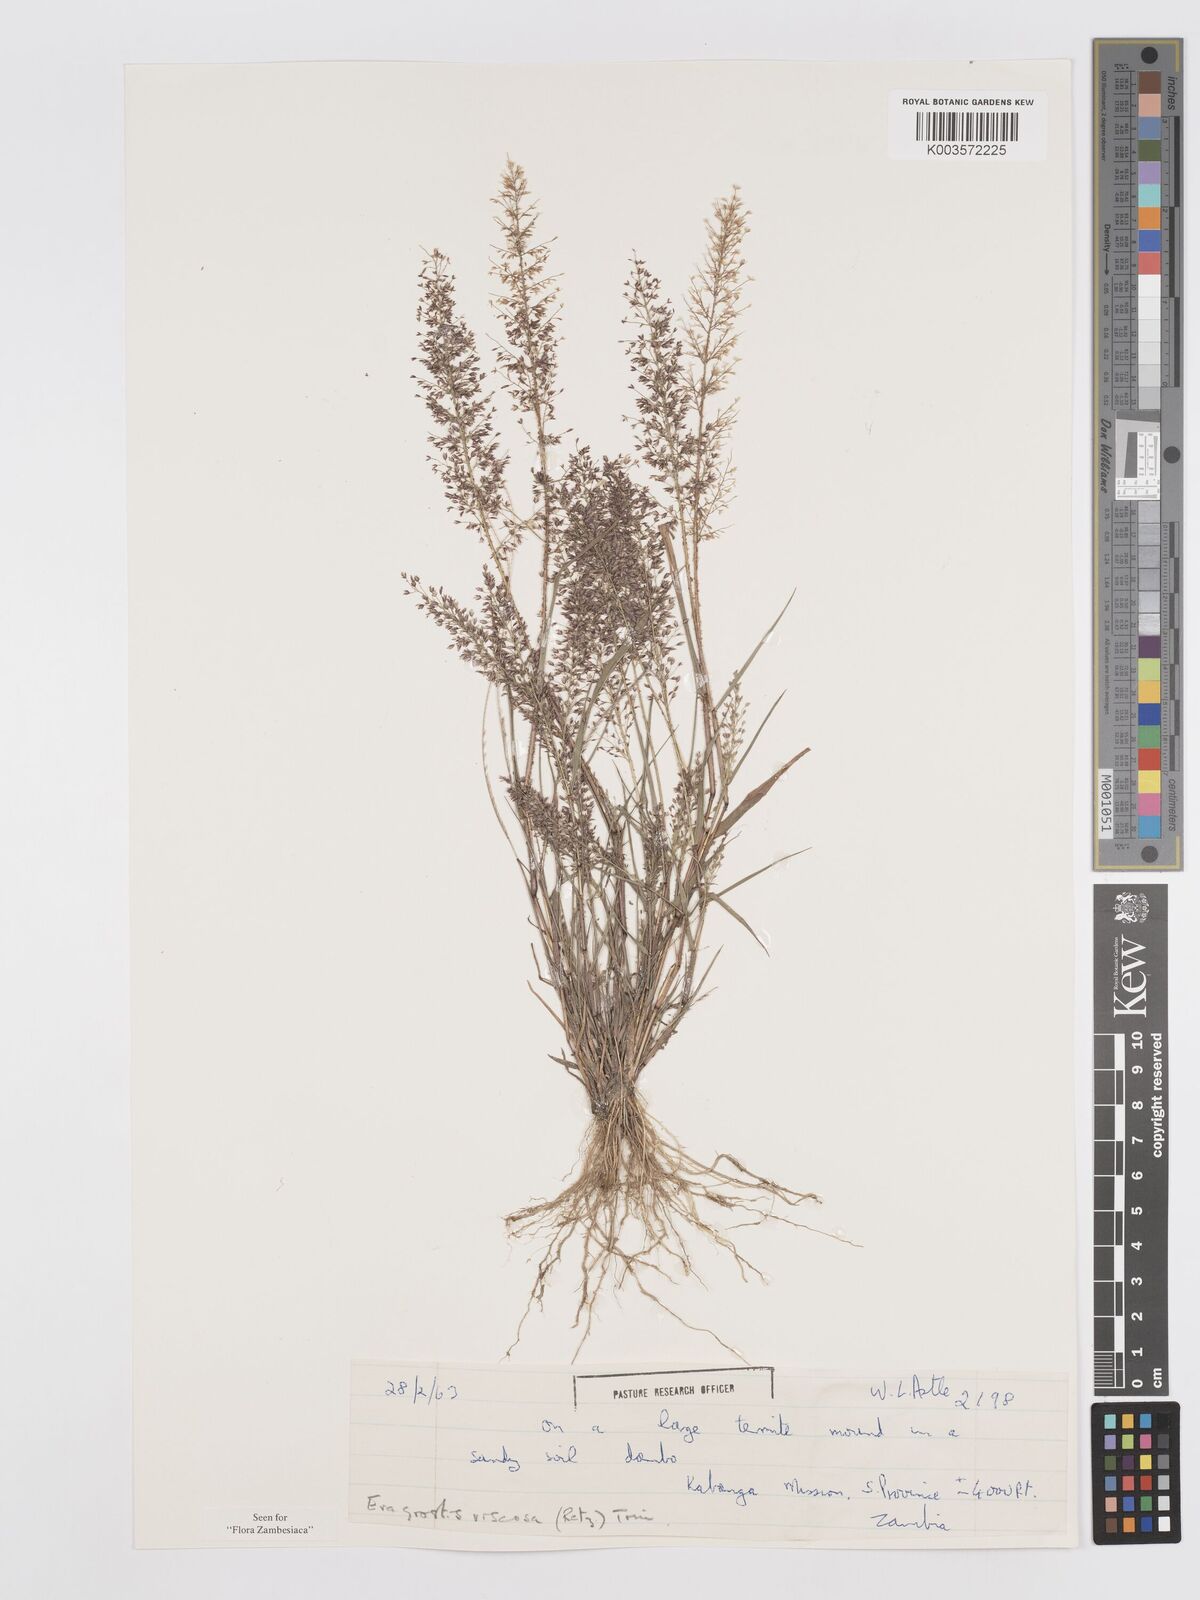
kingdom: Plantae
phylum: Tracheophyta
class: Liliopsida
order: Poales
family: Poaceae
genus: Eragrostis
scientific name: Eragrostis
